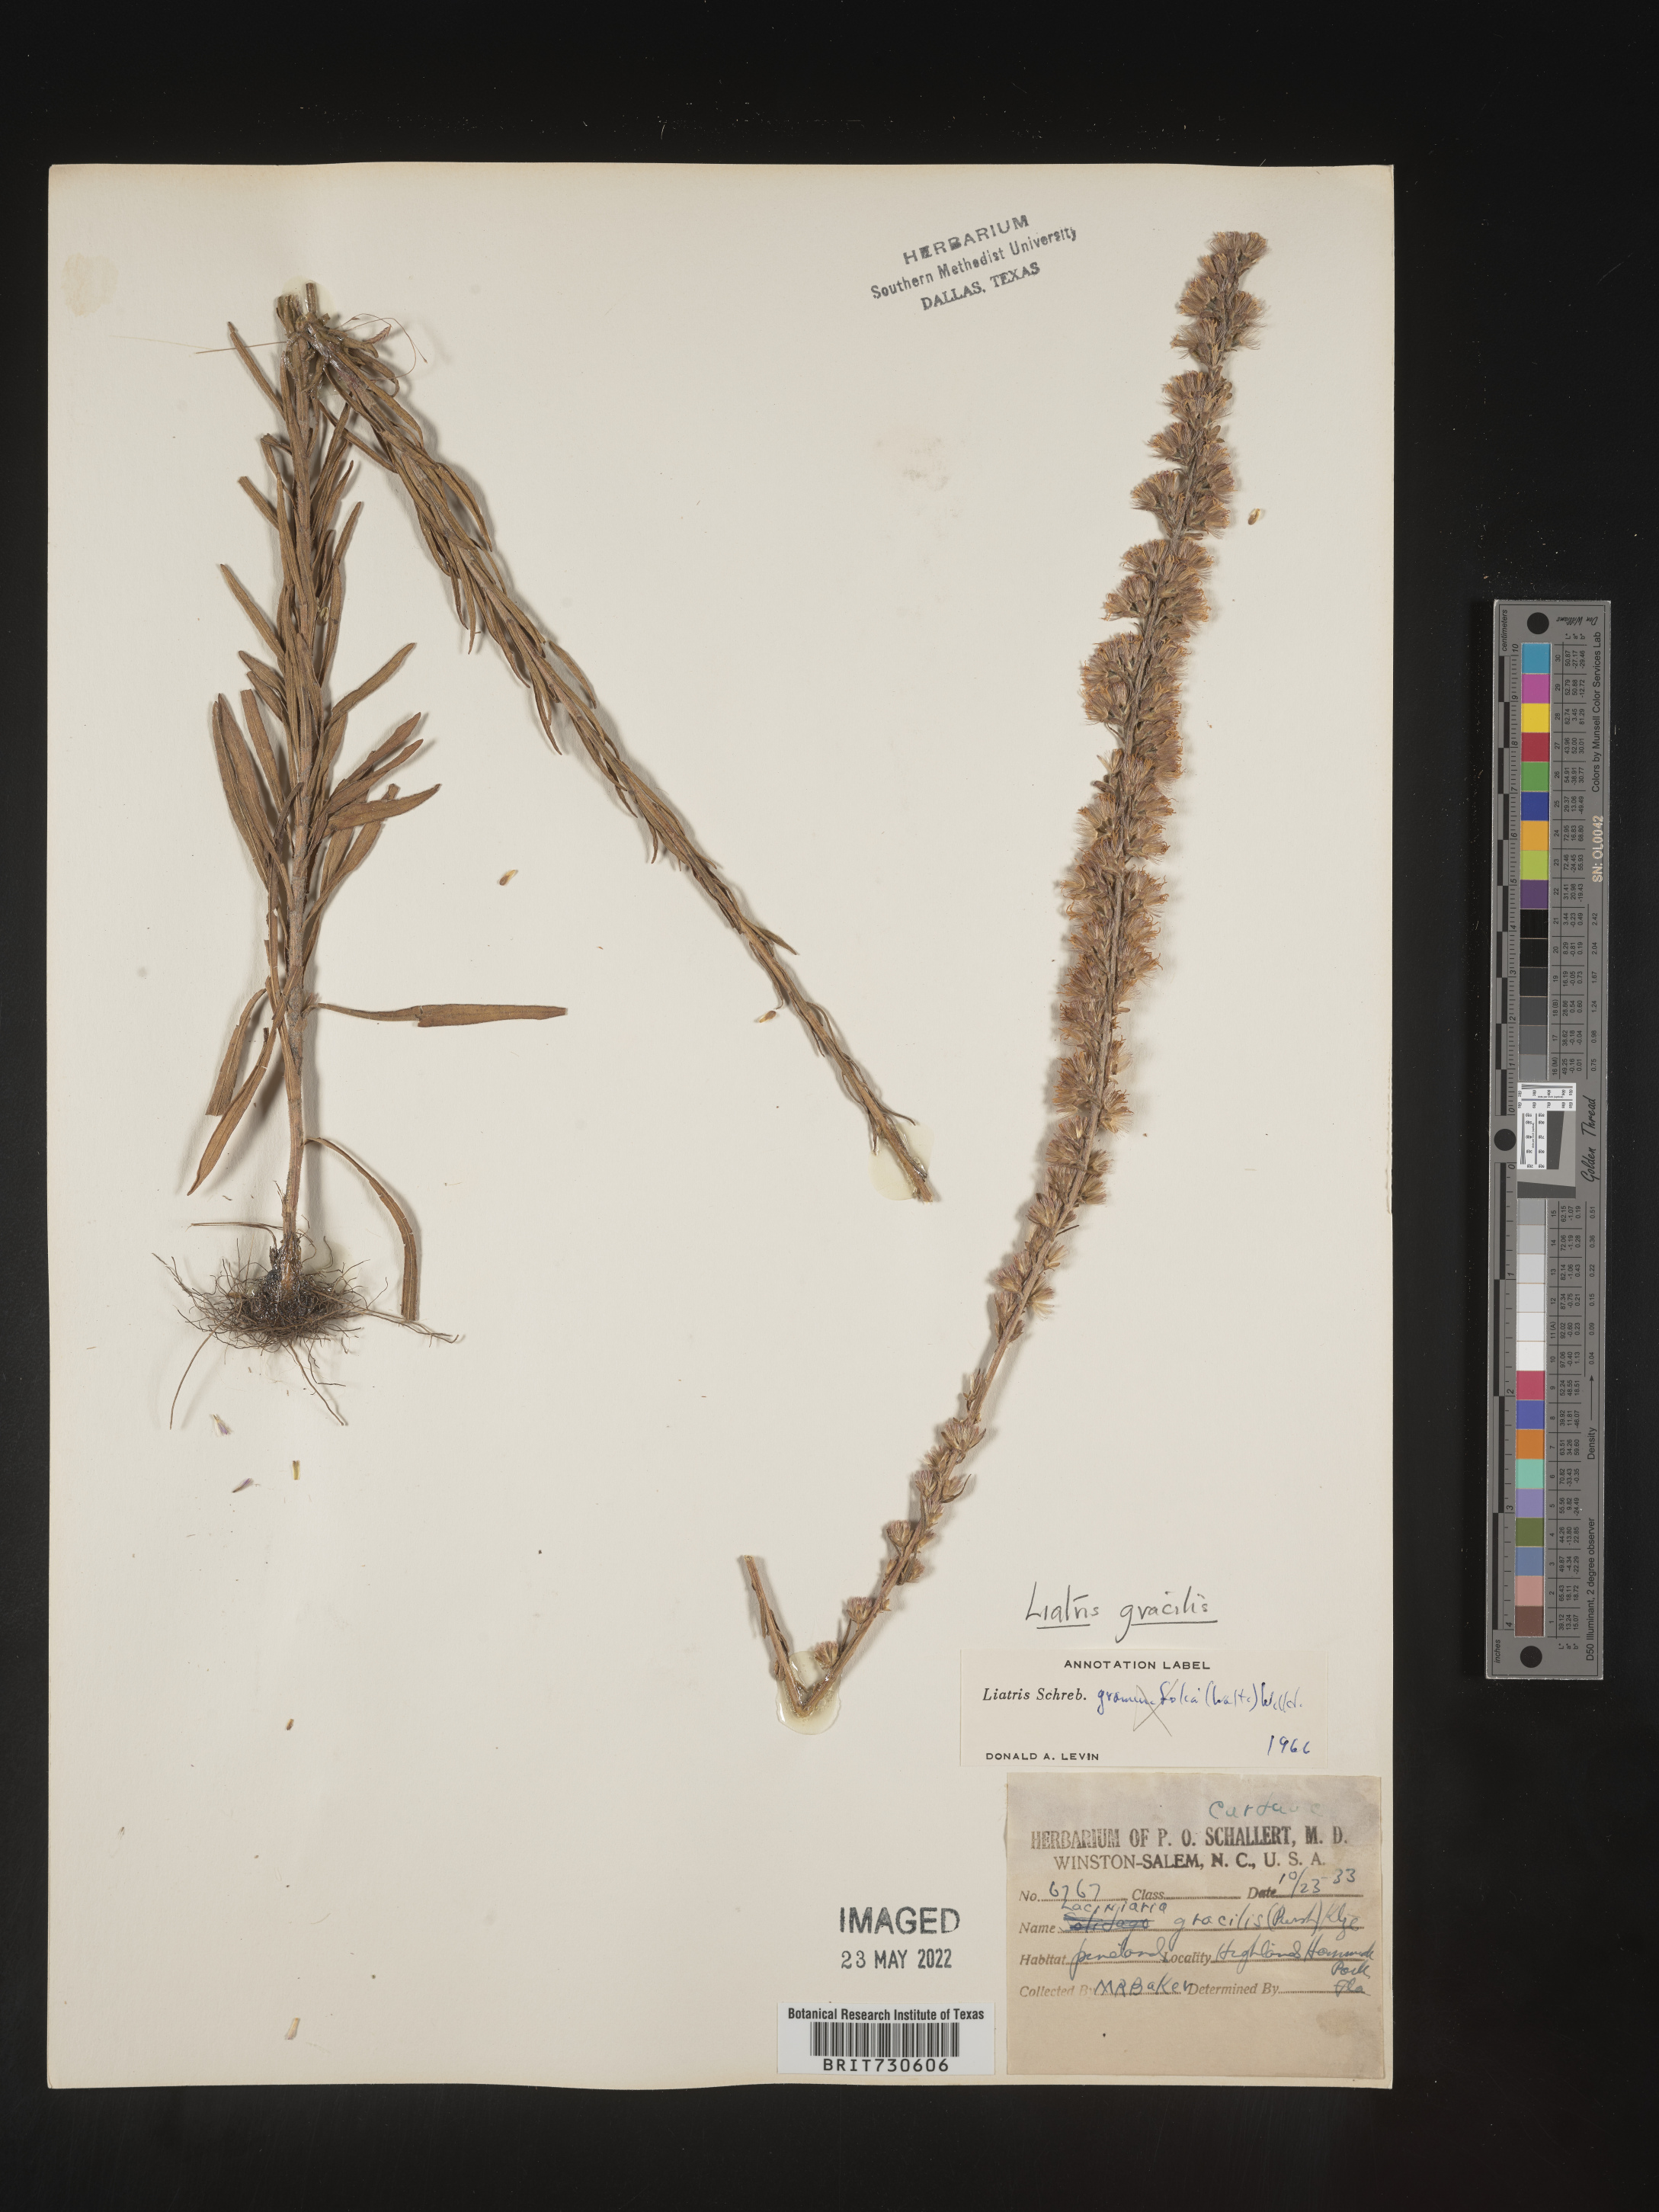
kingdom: Plantae
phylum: Tracheophyta
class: Magnoliopsida
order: Asterales
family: Asteraceae
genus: Liatris
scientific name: Liatris gracilis
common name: Slender gayfeather
